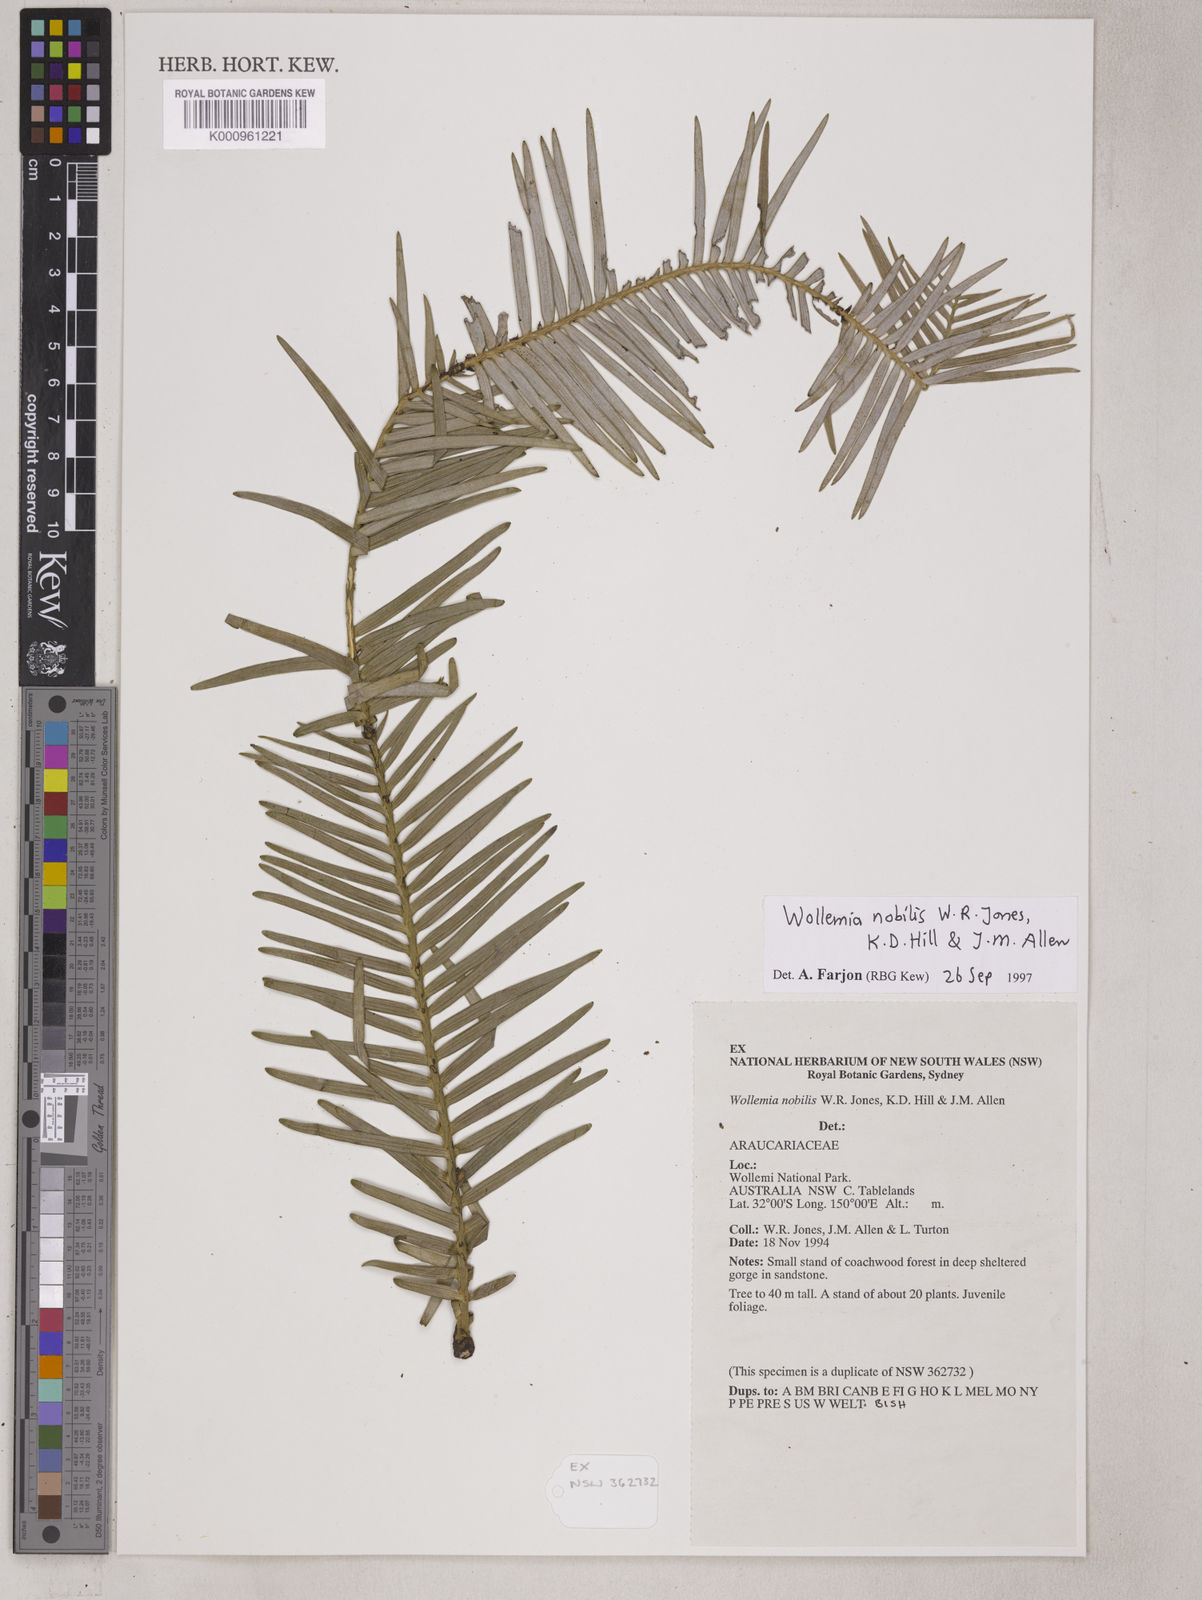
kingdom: Plantae
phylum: Tracheophyta
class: Pinopsida
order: Pinales
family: Araucariaceae
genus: Wollemia
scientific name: Wollemia nobilis
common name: Wollemi pine
